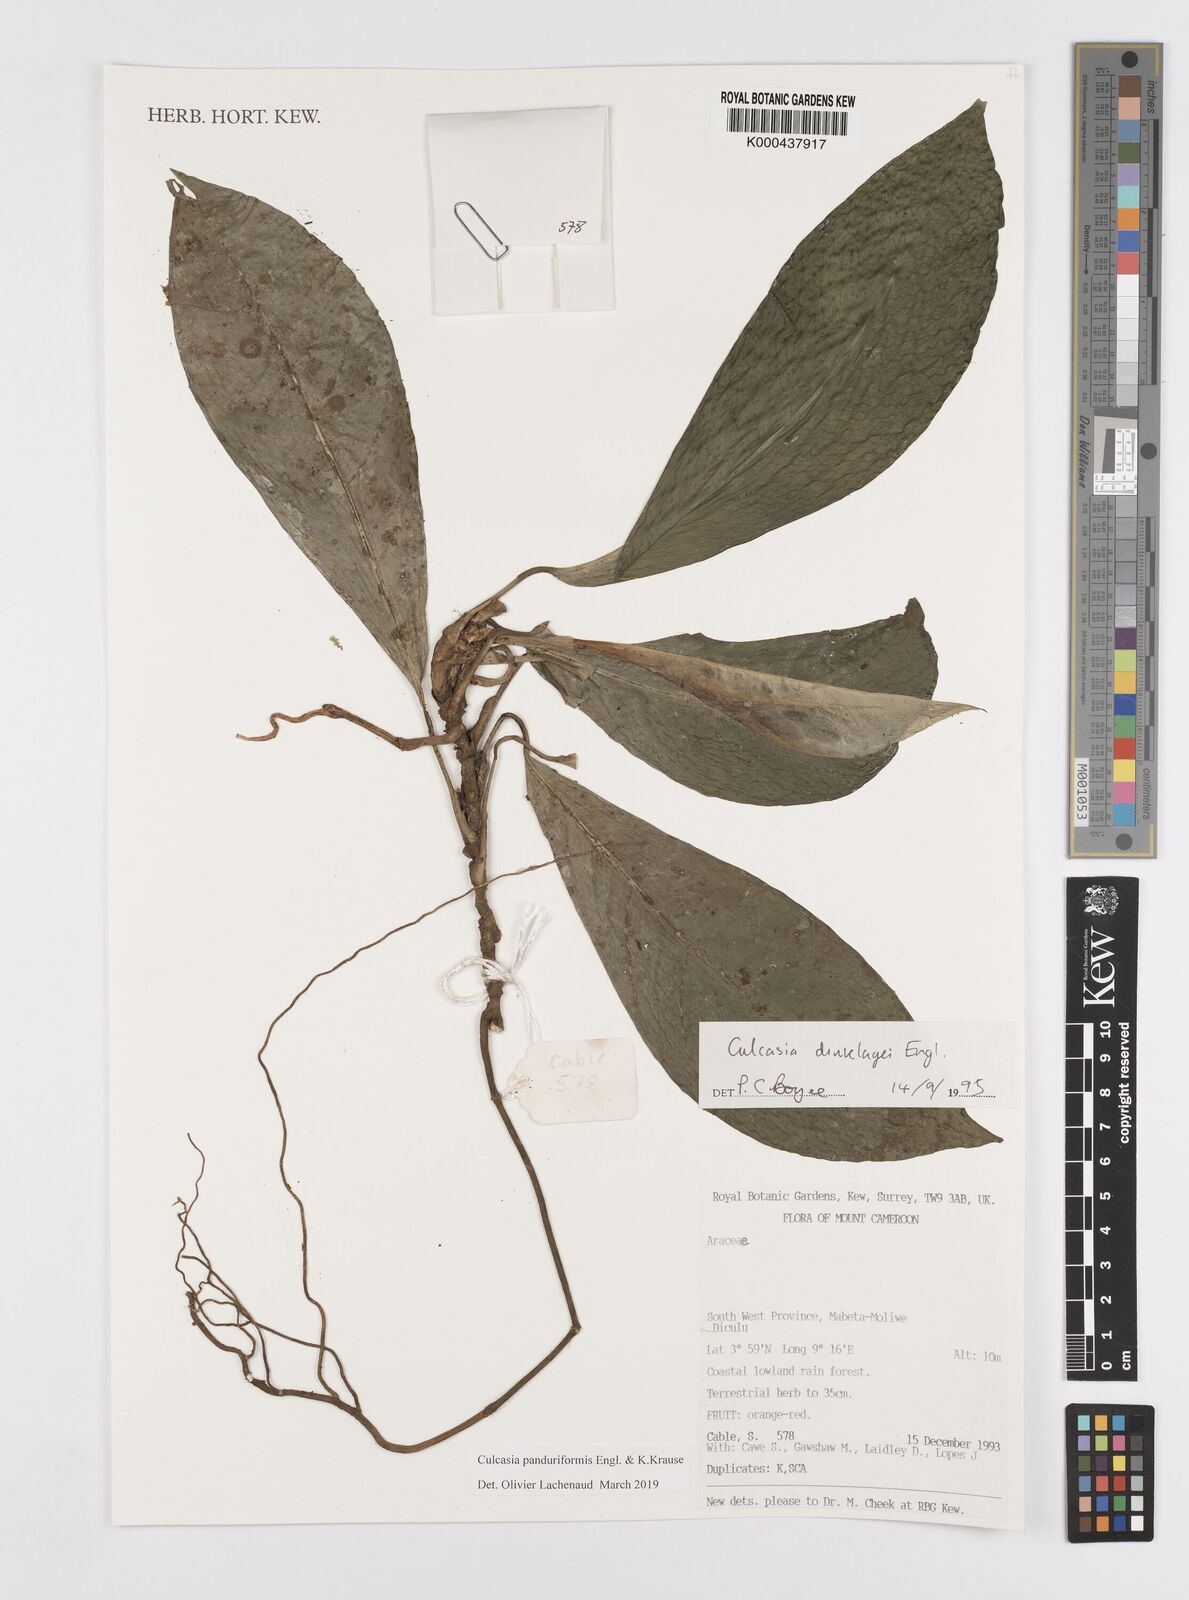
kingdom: Plantae
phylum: Tracheophyta
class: Liliopsida
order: Alismatales
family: Araceae
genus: Culcasia
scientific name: Culcasia panduriformis
